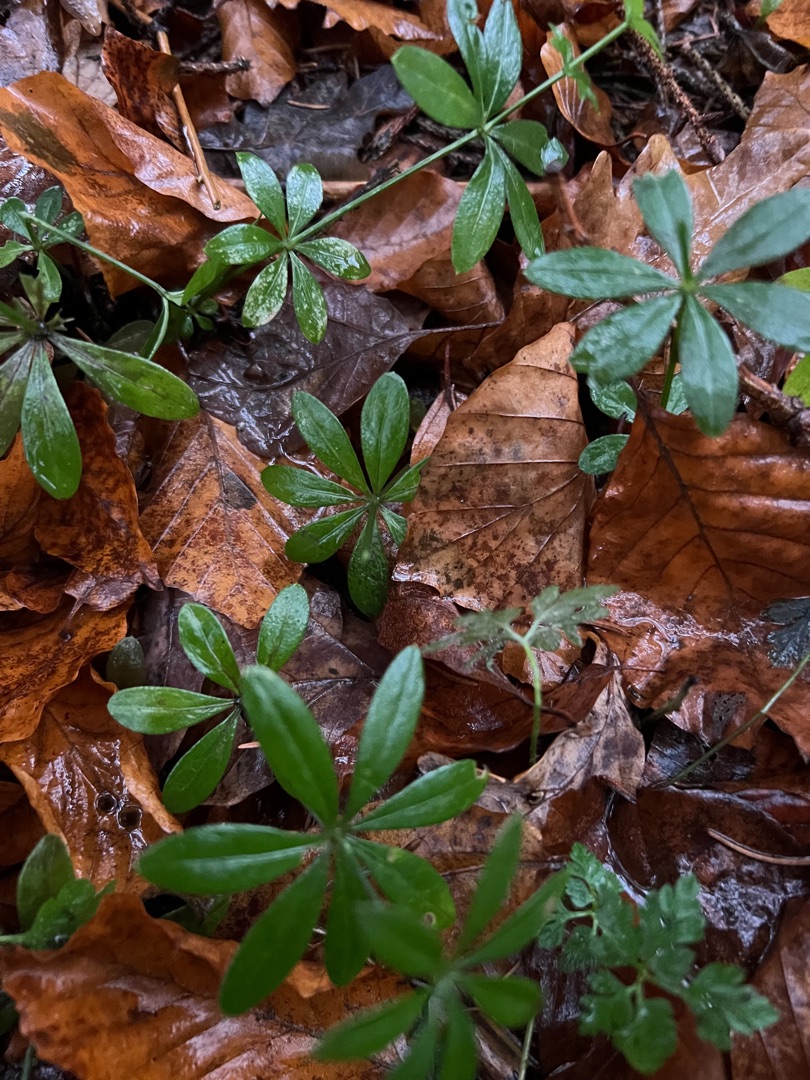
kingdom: Plantae
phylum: Tracheophyta
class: Magnoliopsida
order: Gentianales
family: Rubiaceae
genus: Galium
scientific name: Galium odoratum
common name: Skovmærke
